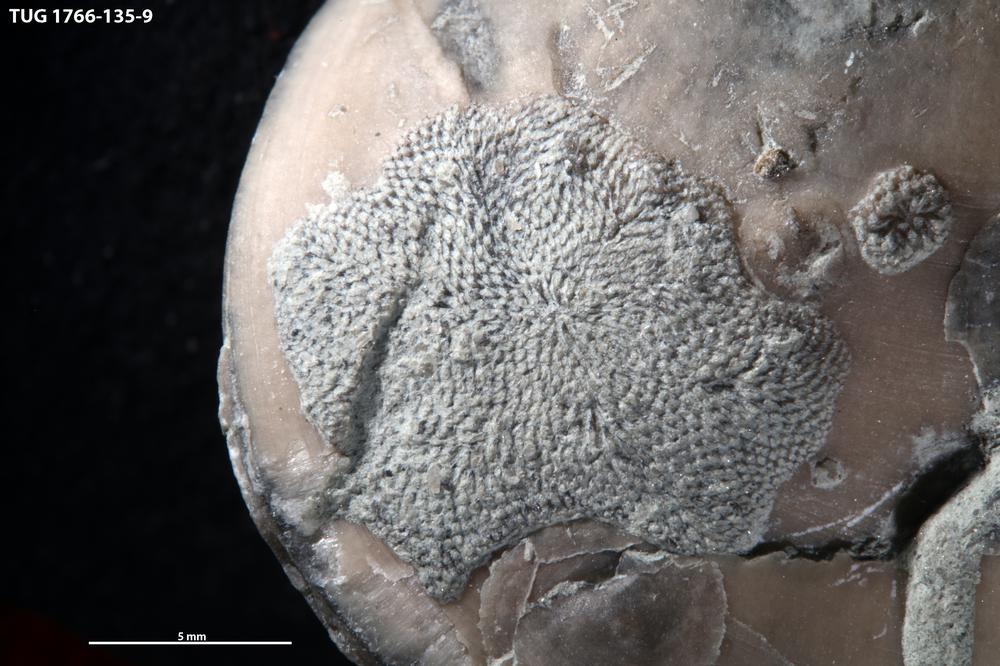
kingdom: Animalia
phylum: Bryozoa
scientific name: Bryozoa
